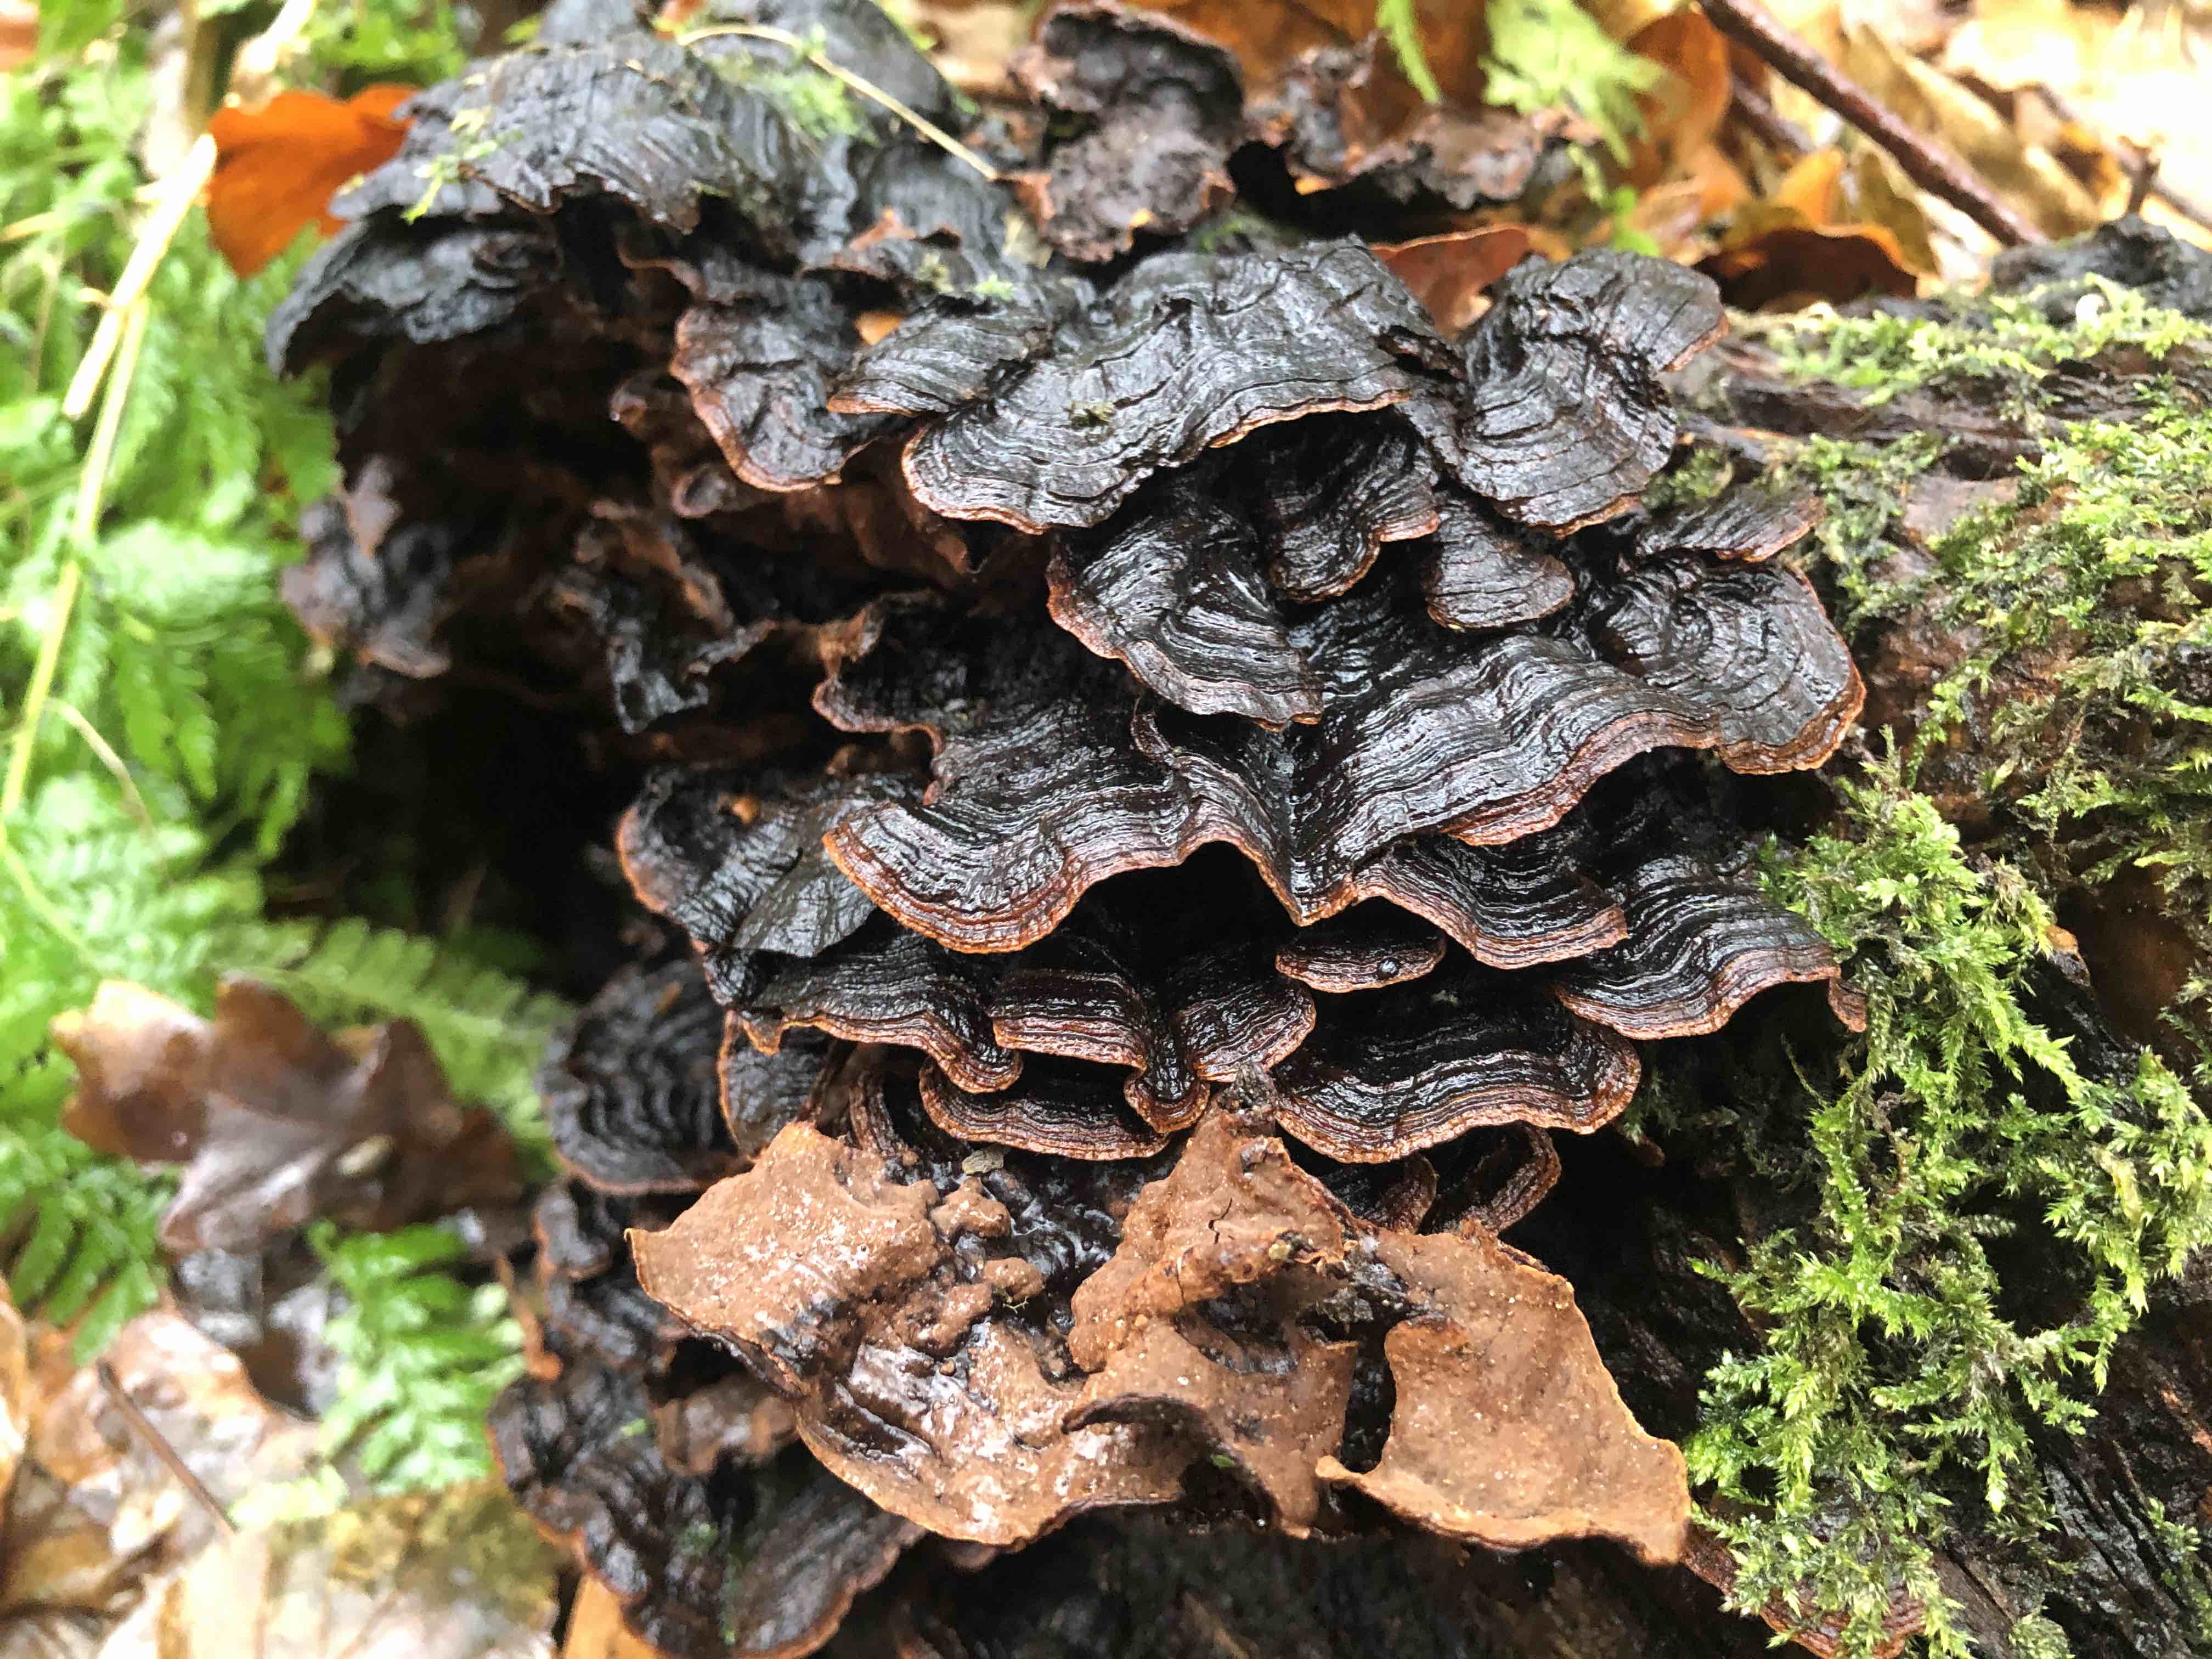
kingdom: Fungi
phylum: Basidiomycota
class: Agaricomycetes
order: Hymenochaetales
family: Hymenochaetaceae
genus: Hymenochaete
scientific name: Hymenochaete rubiginosa
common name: stiv ruslædersvamp
